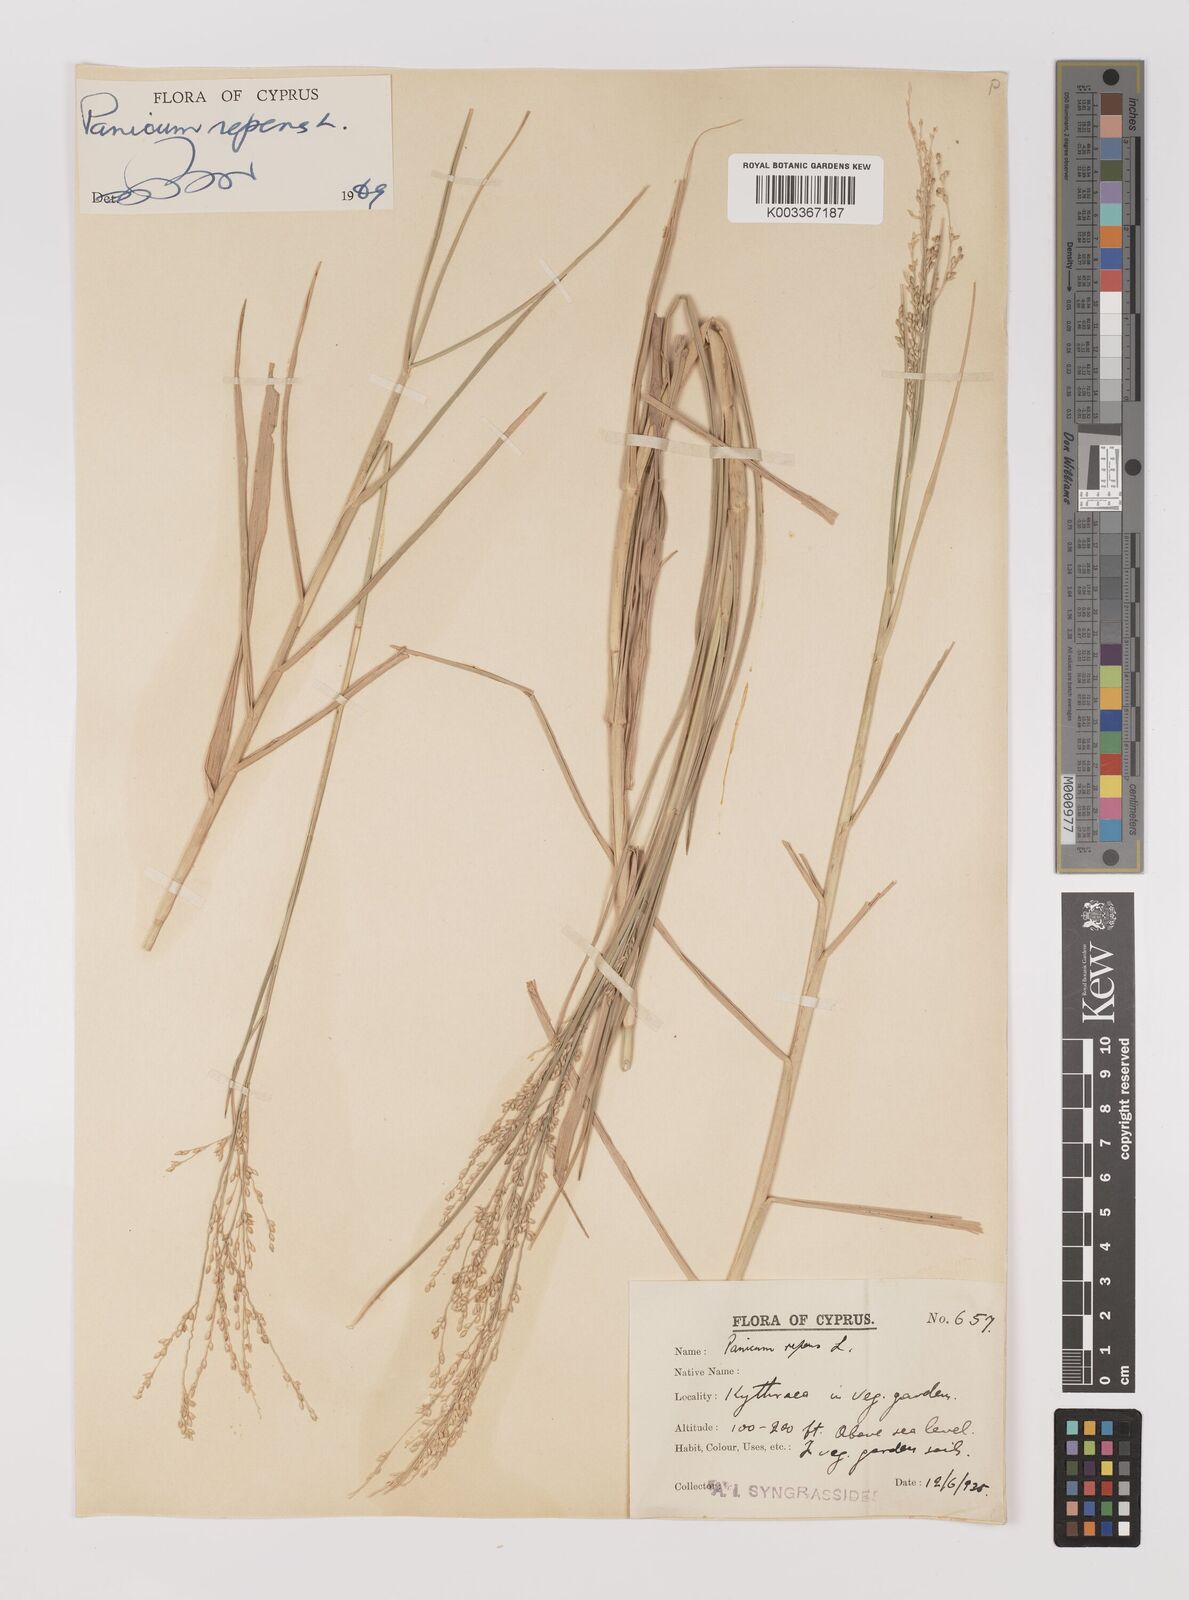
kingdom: Plantae
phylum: Tracheophyta
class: Liliopsida
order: Poales
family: Poaceae
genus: Panicum
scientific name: Panicum repens
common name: Torpedo grass
